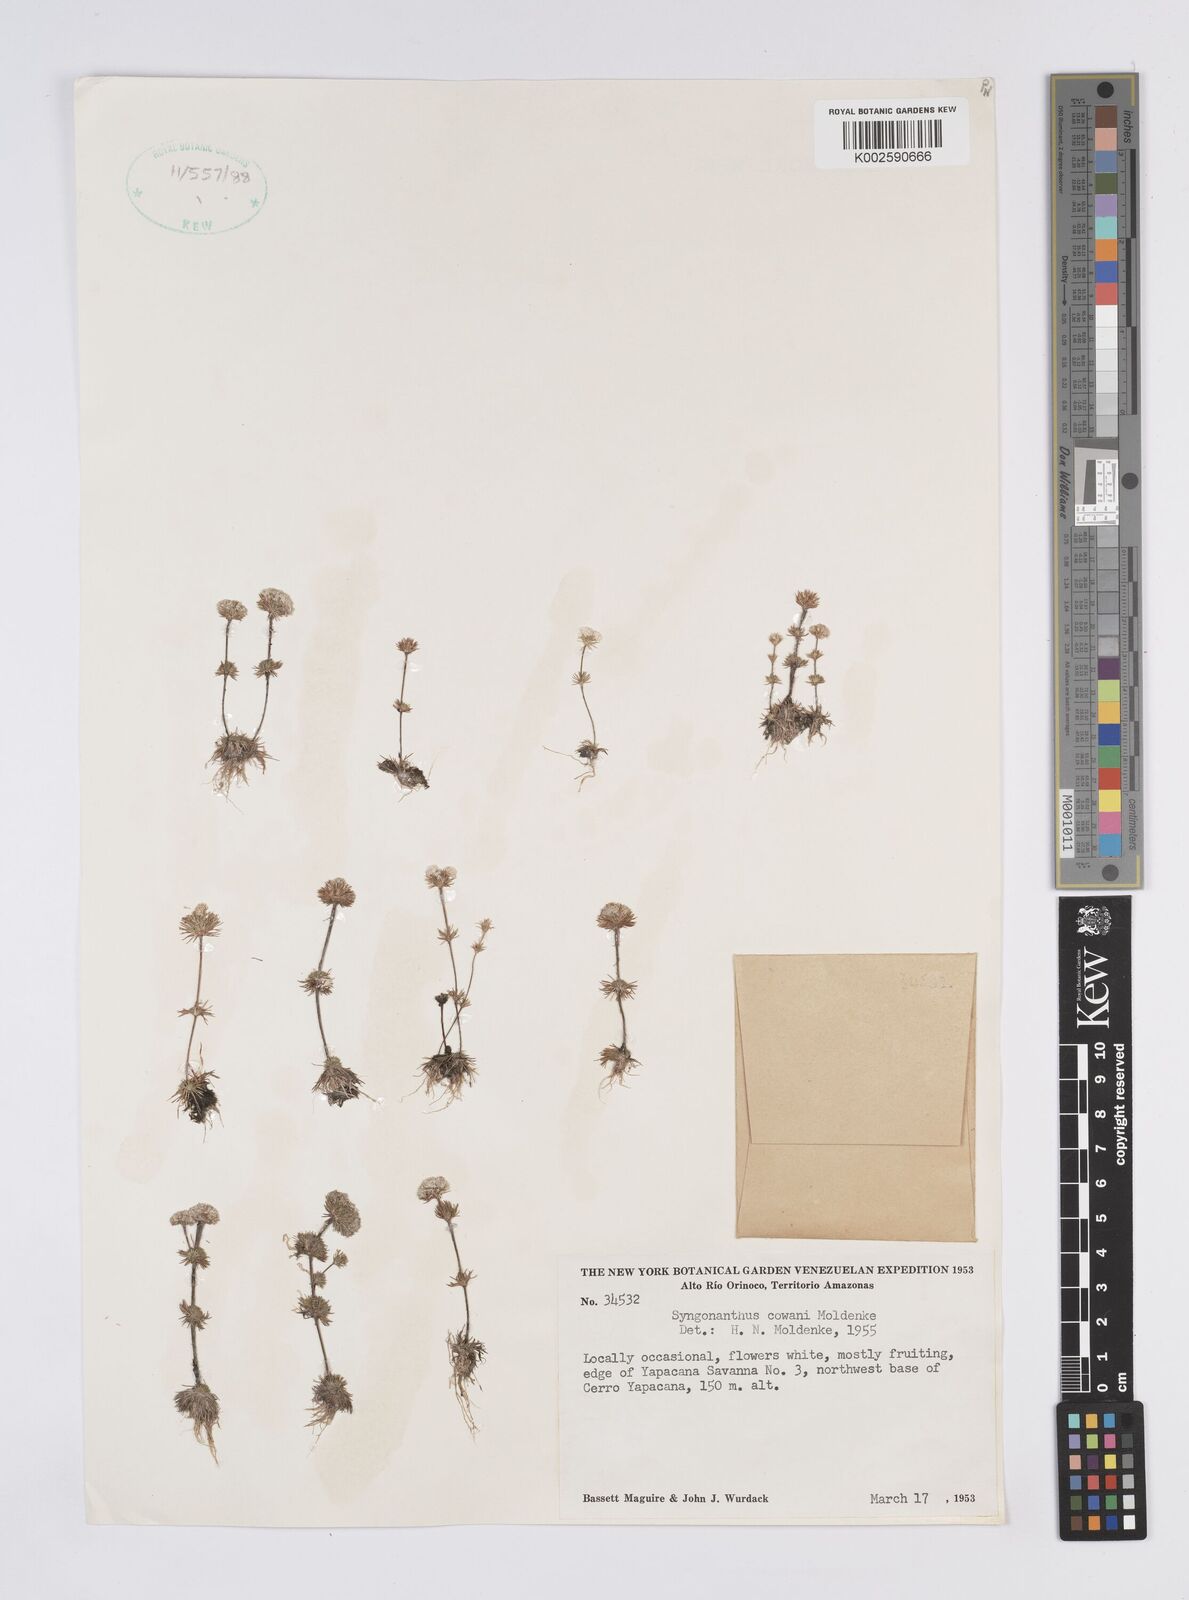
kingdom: Plantae
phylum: Tracheophyta
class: Liliopsida
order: Poales
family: Eriocaulaceae
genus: Syngonanthus
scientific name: Syngonanthus cowanii
